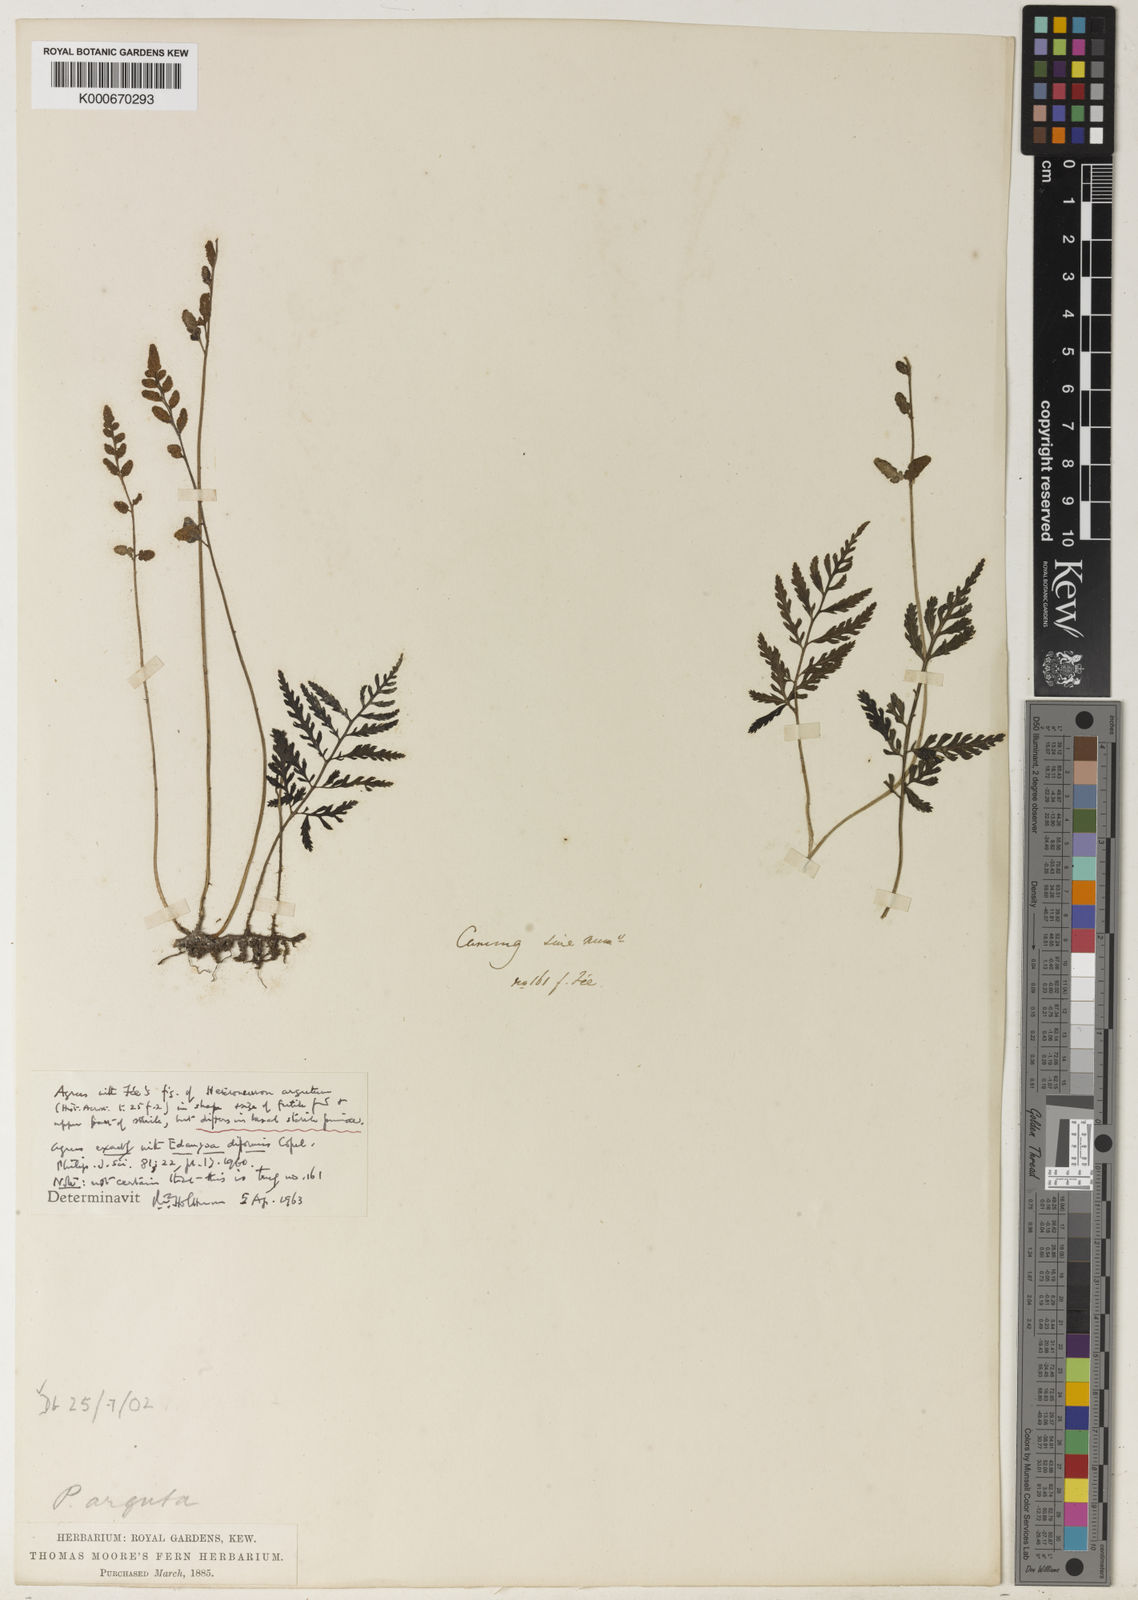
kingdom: Plantae
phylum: Tracheophyta
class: Polypodiopsida
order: Polypodiales
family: Dryopteridaceae
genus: Bolbitis
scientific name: Bolbitis
